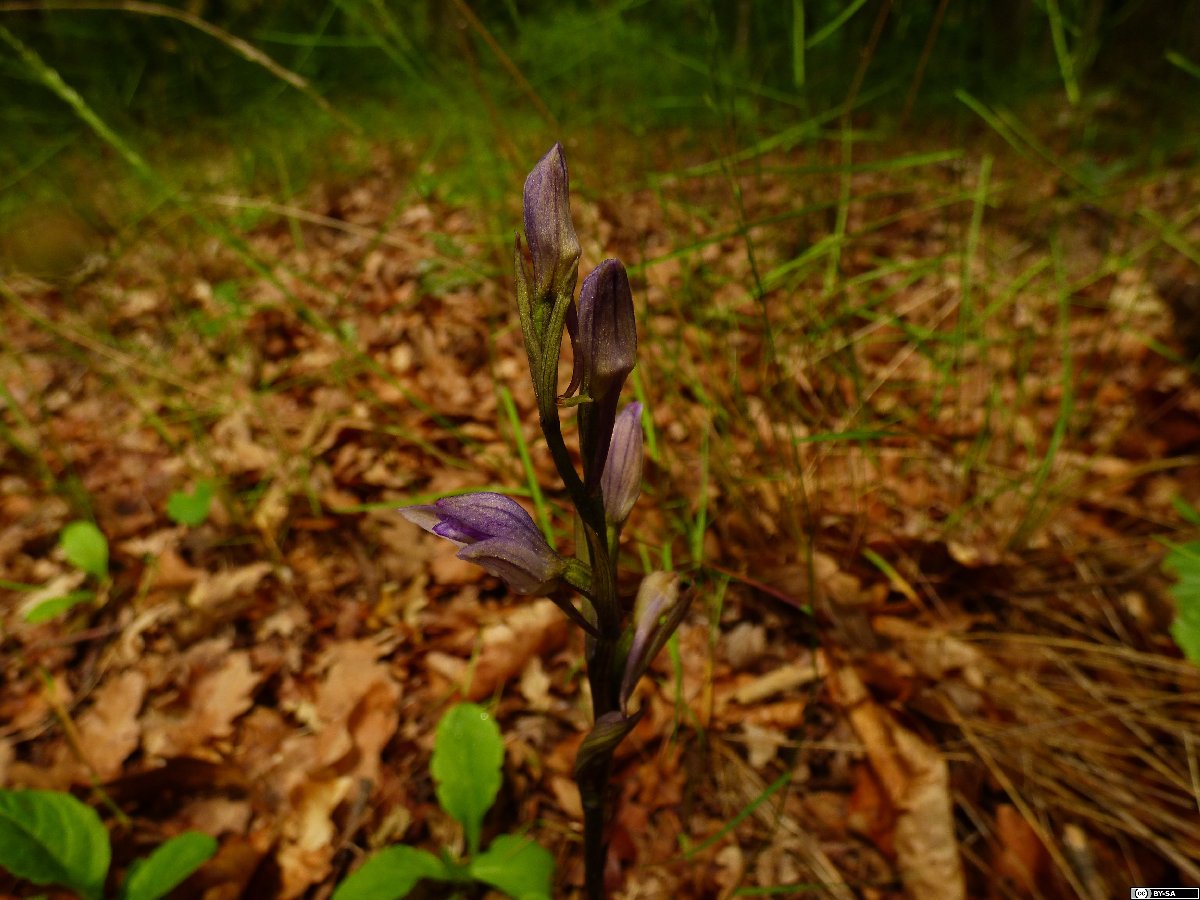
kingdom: Plantae
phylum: Tracheophyta
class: Liliopsida
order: Asparagales
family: Orchidaceae
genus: Limodorum
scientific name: Limodorum abortivum
